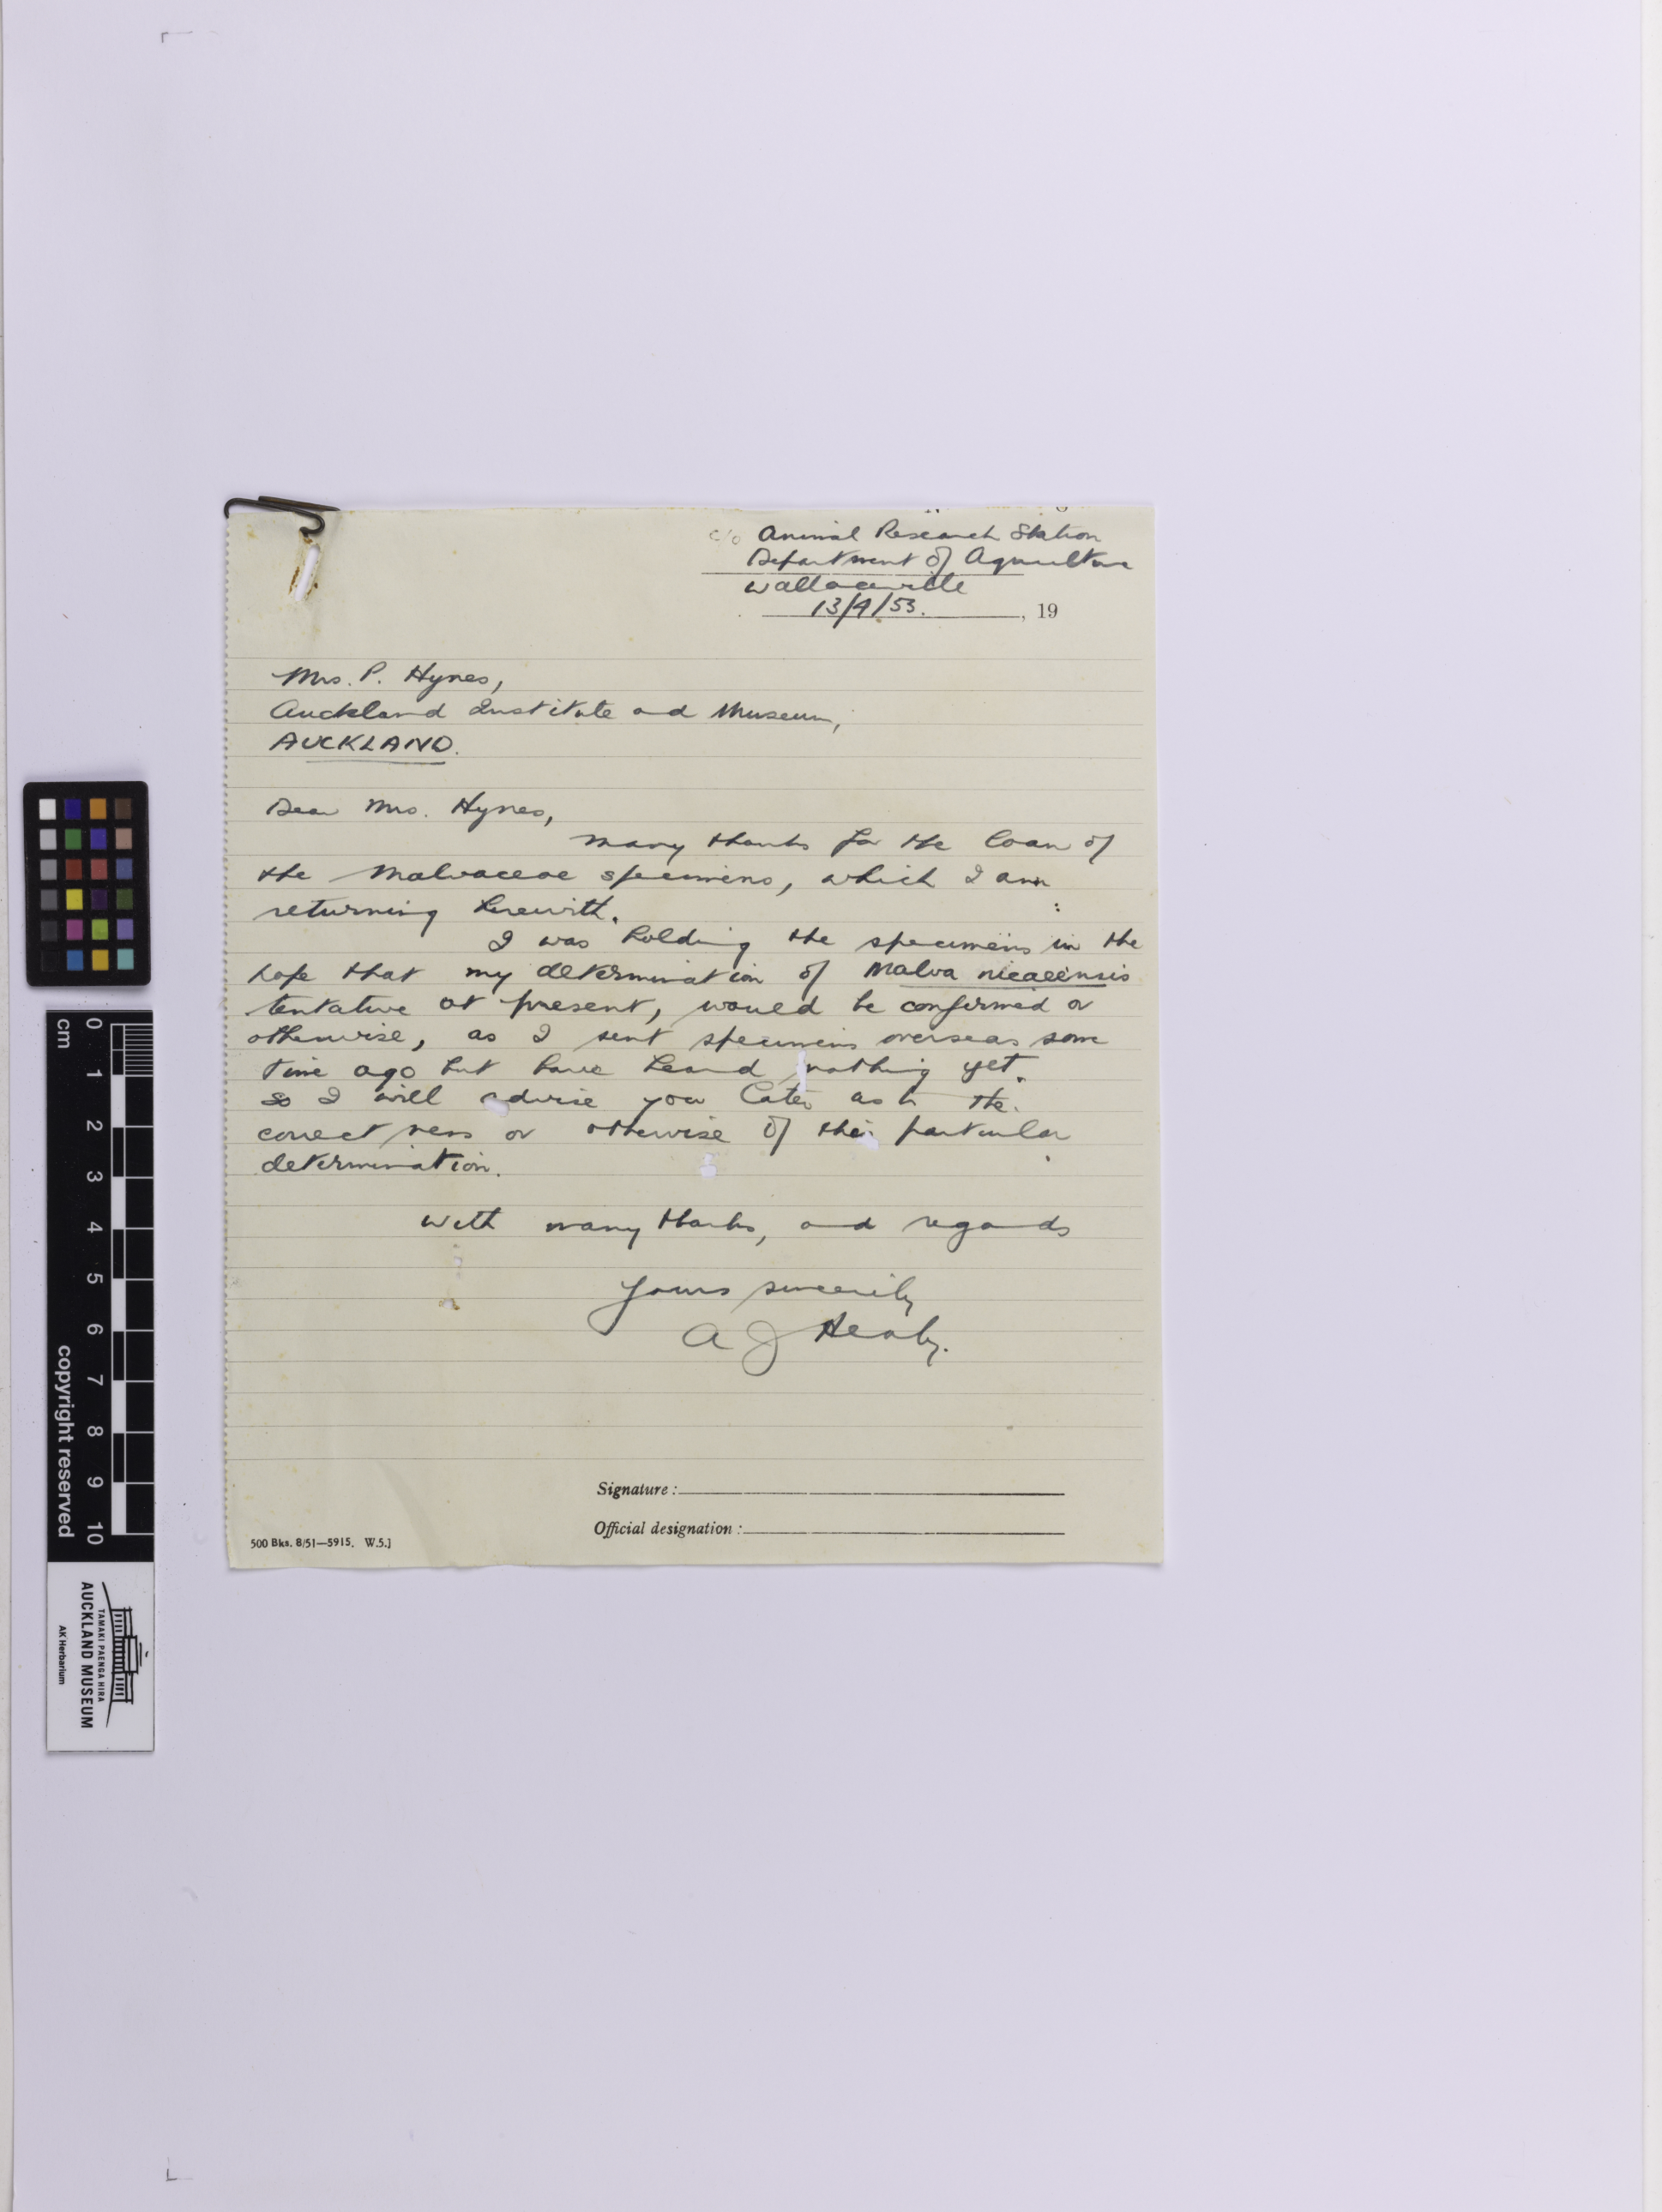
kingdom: Plantae
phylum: Tracheophyta
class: Magnoliopsida
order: Malvales
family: Malvaceae
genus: Malva
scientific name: Malva nicaeensis
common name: French mallow
